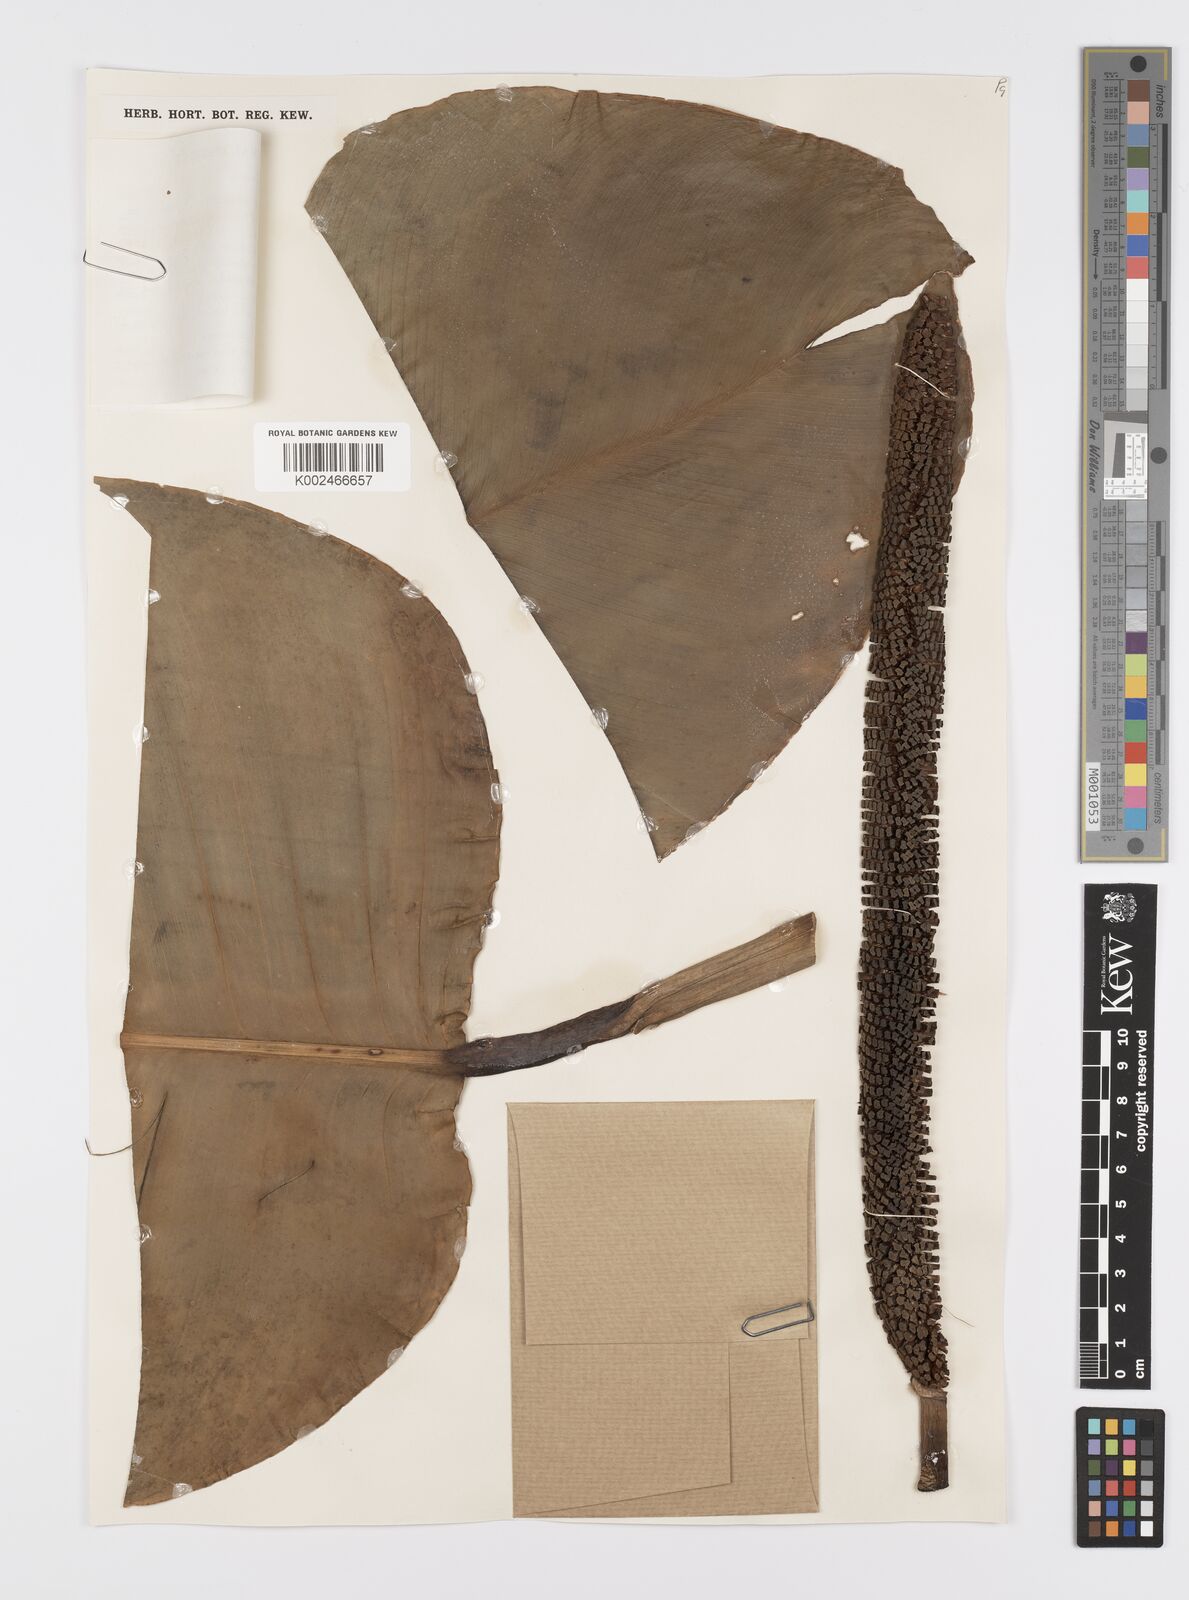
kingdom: Plantae
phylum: Tracheophyta
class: Liliopsida
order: Alismatales
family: Araceae
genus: Scindapsus
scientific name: Scindapsus altissimus
